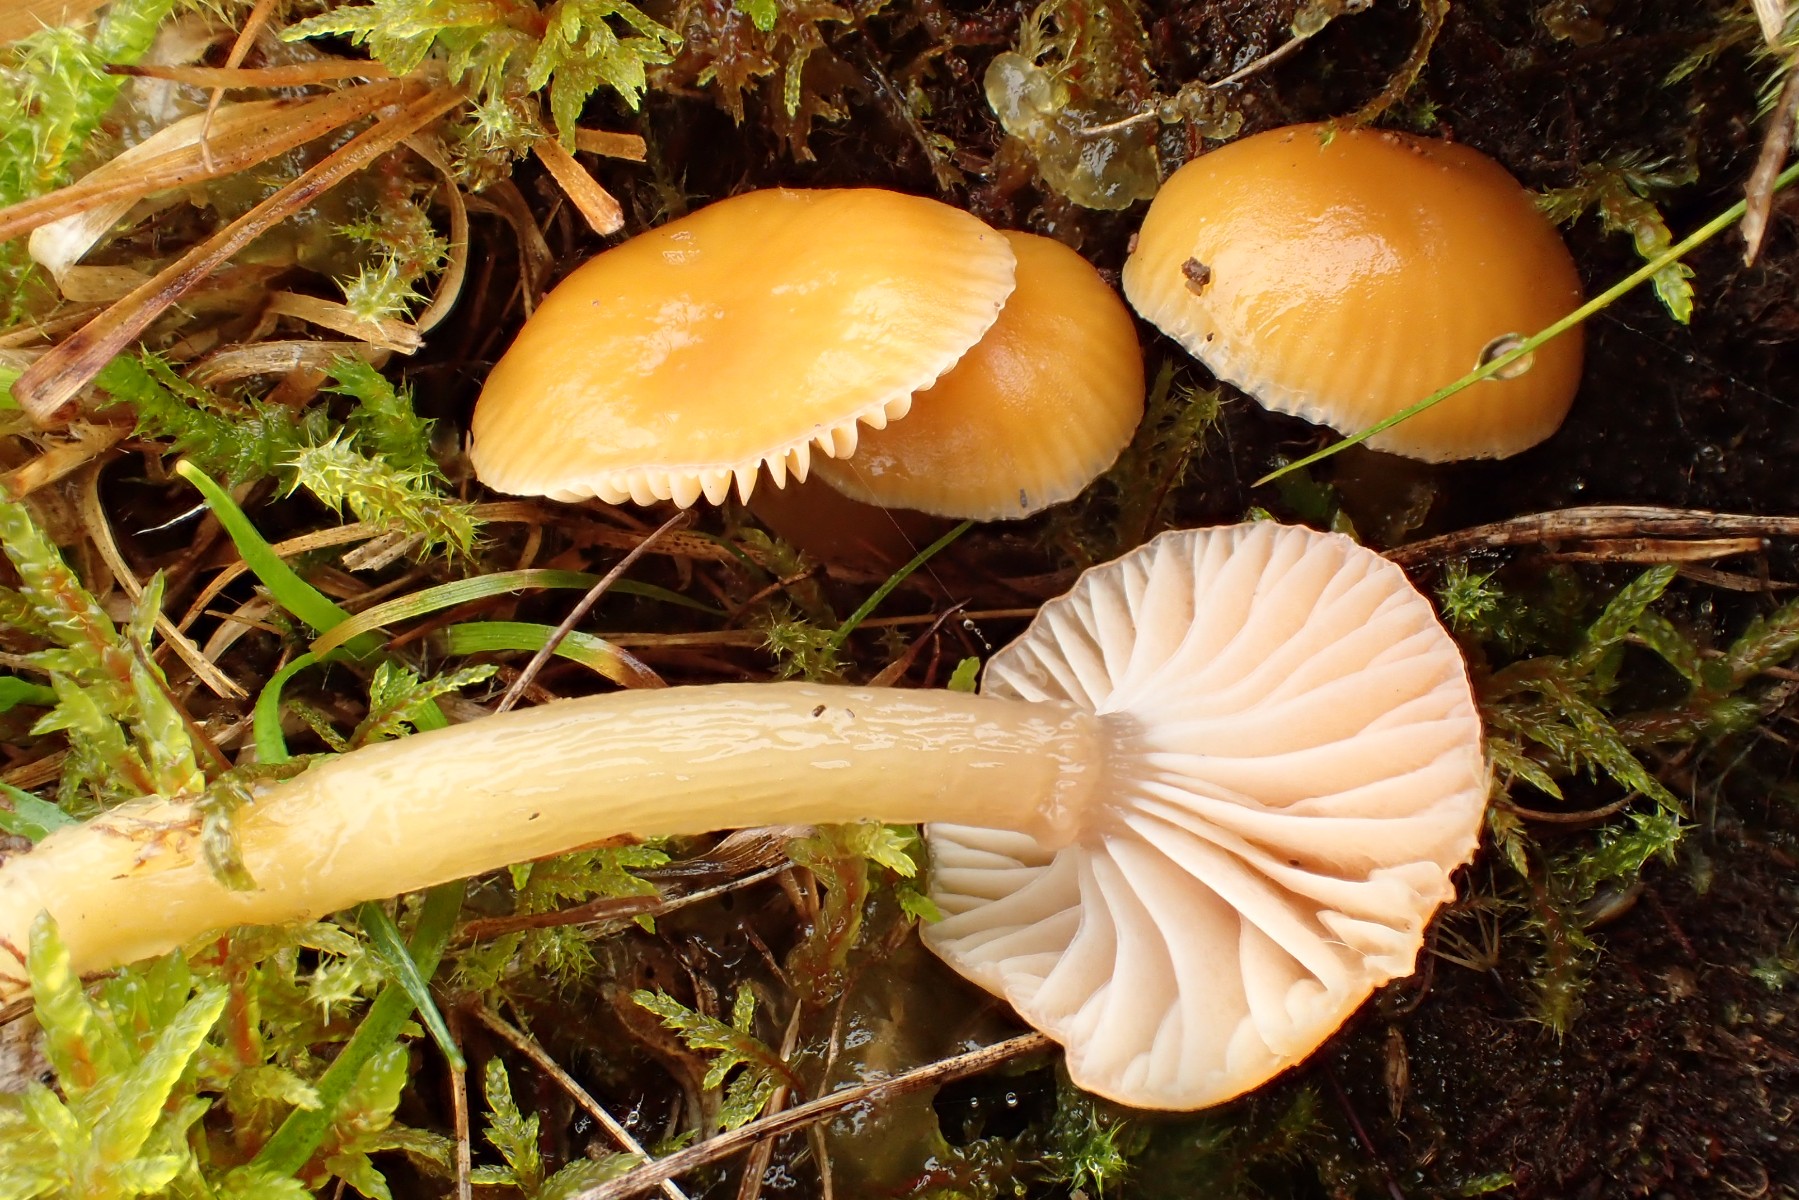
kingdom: Fungi
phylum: Basidiomycota
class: Agaricomycetes
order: Agaricales
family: Hygrophoraceae
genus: Gliophorus
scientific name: Gliophorus laetus
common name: brusk-vokshat
